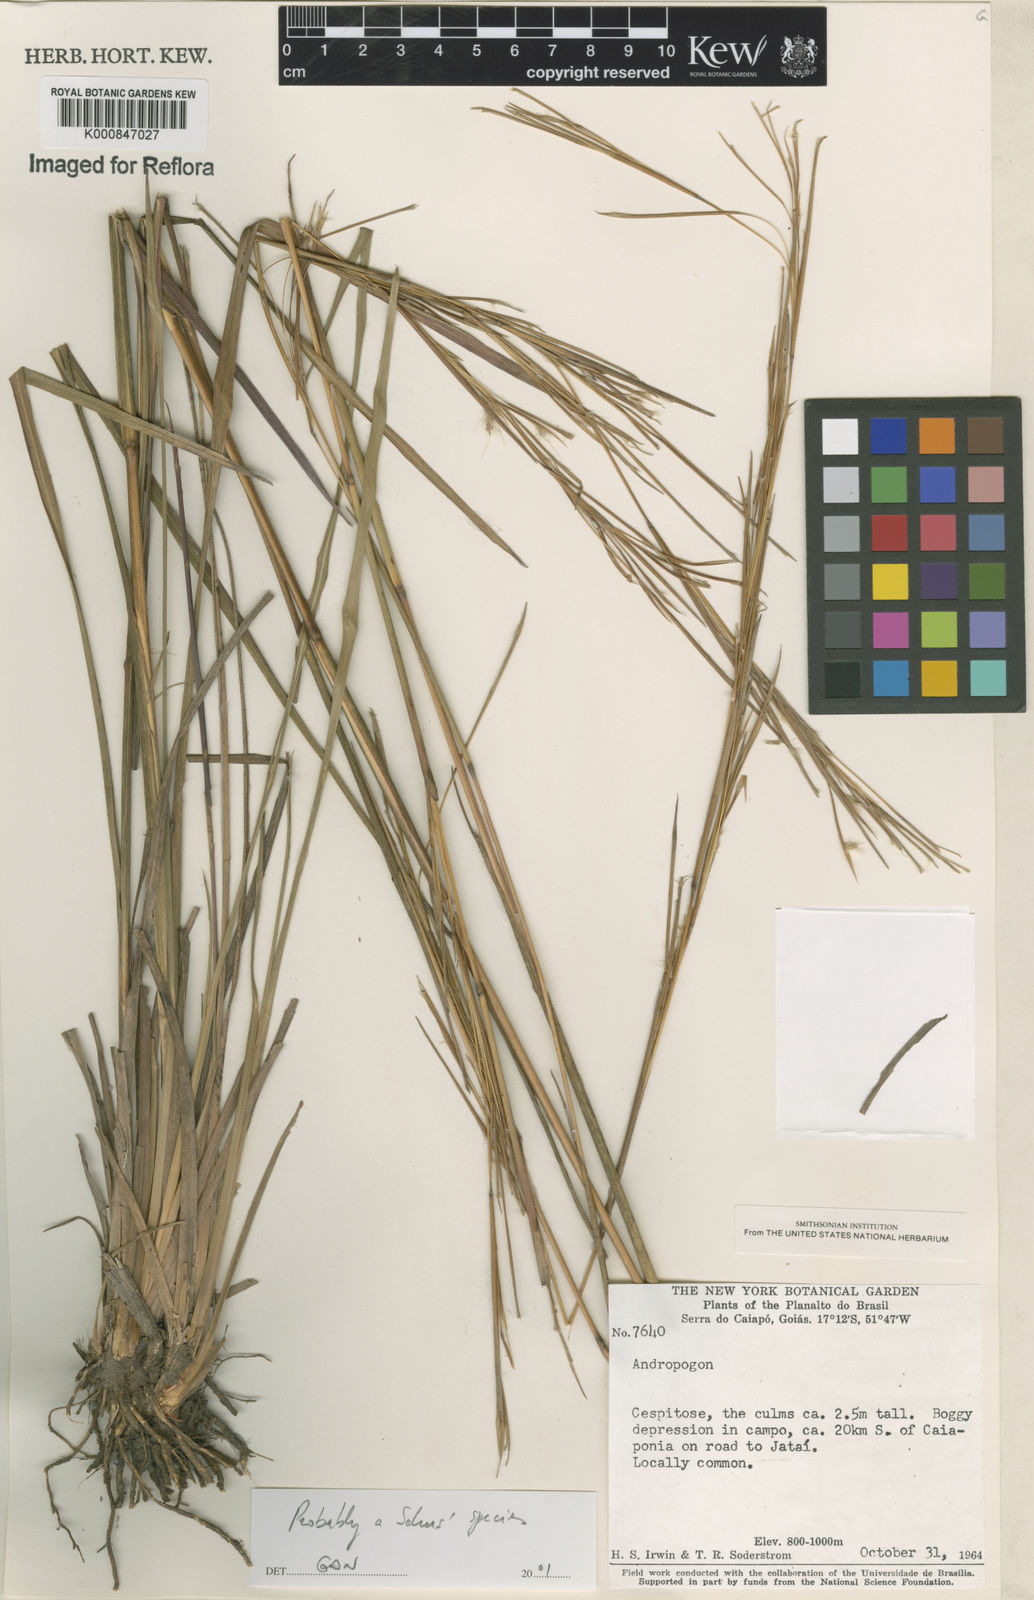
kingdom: Plantae
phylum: Tracheophyta
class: Liliopsida
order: Poales
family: Poaceae
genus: Andropogon
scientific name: Andropogon bicornis
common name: West indian foxtail grass
